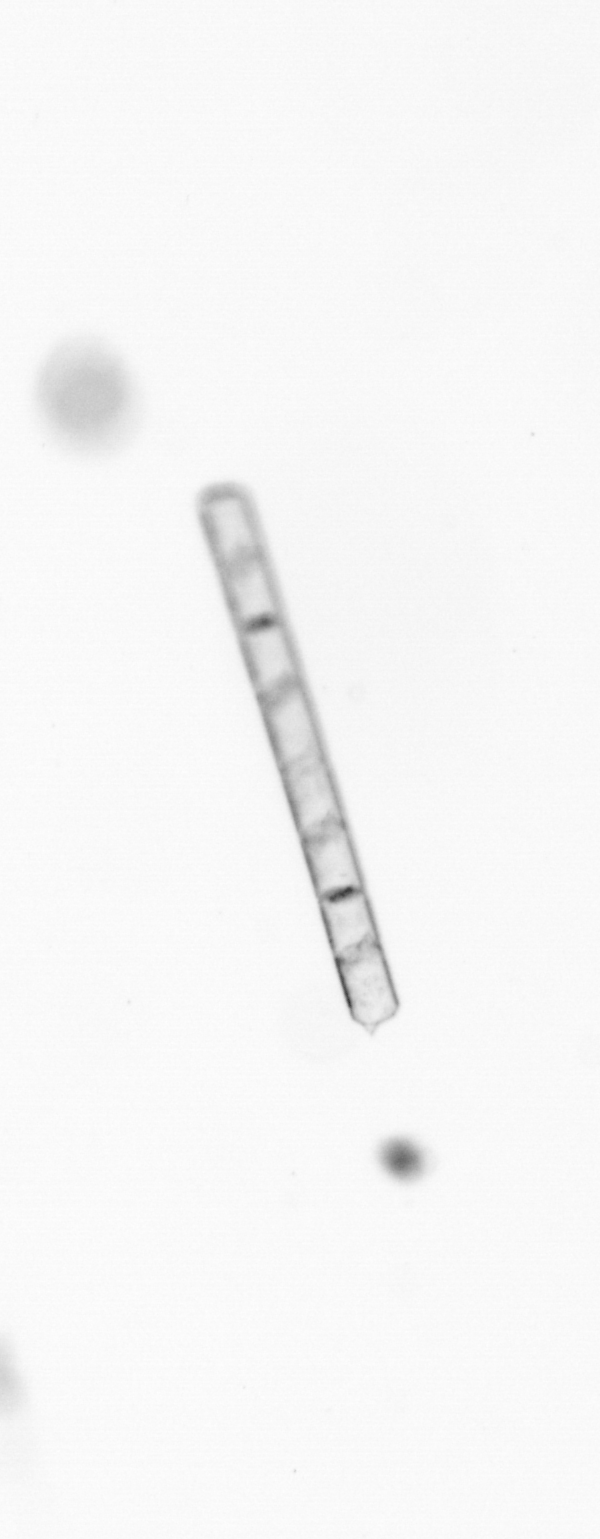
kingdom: Chromista
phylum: Ochrophyta
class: Bacillariophyceae
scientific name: Bacillariophyceae
